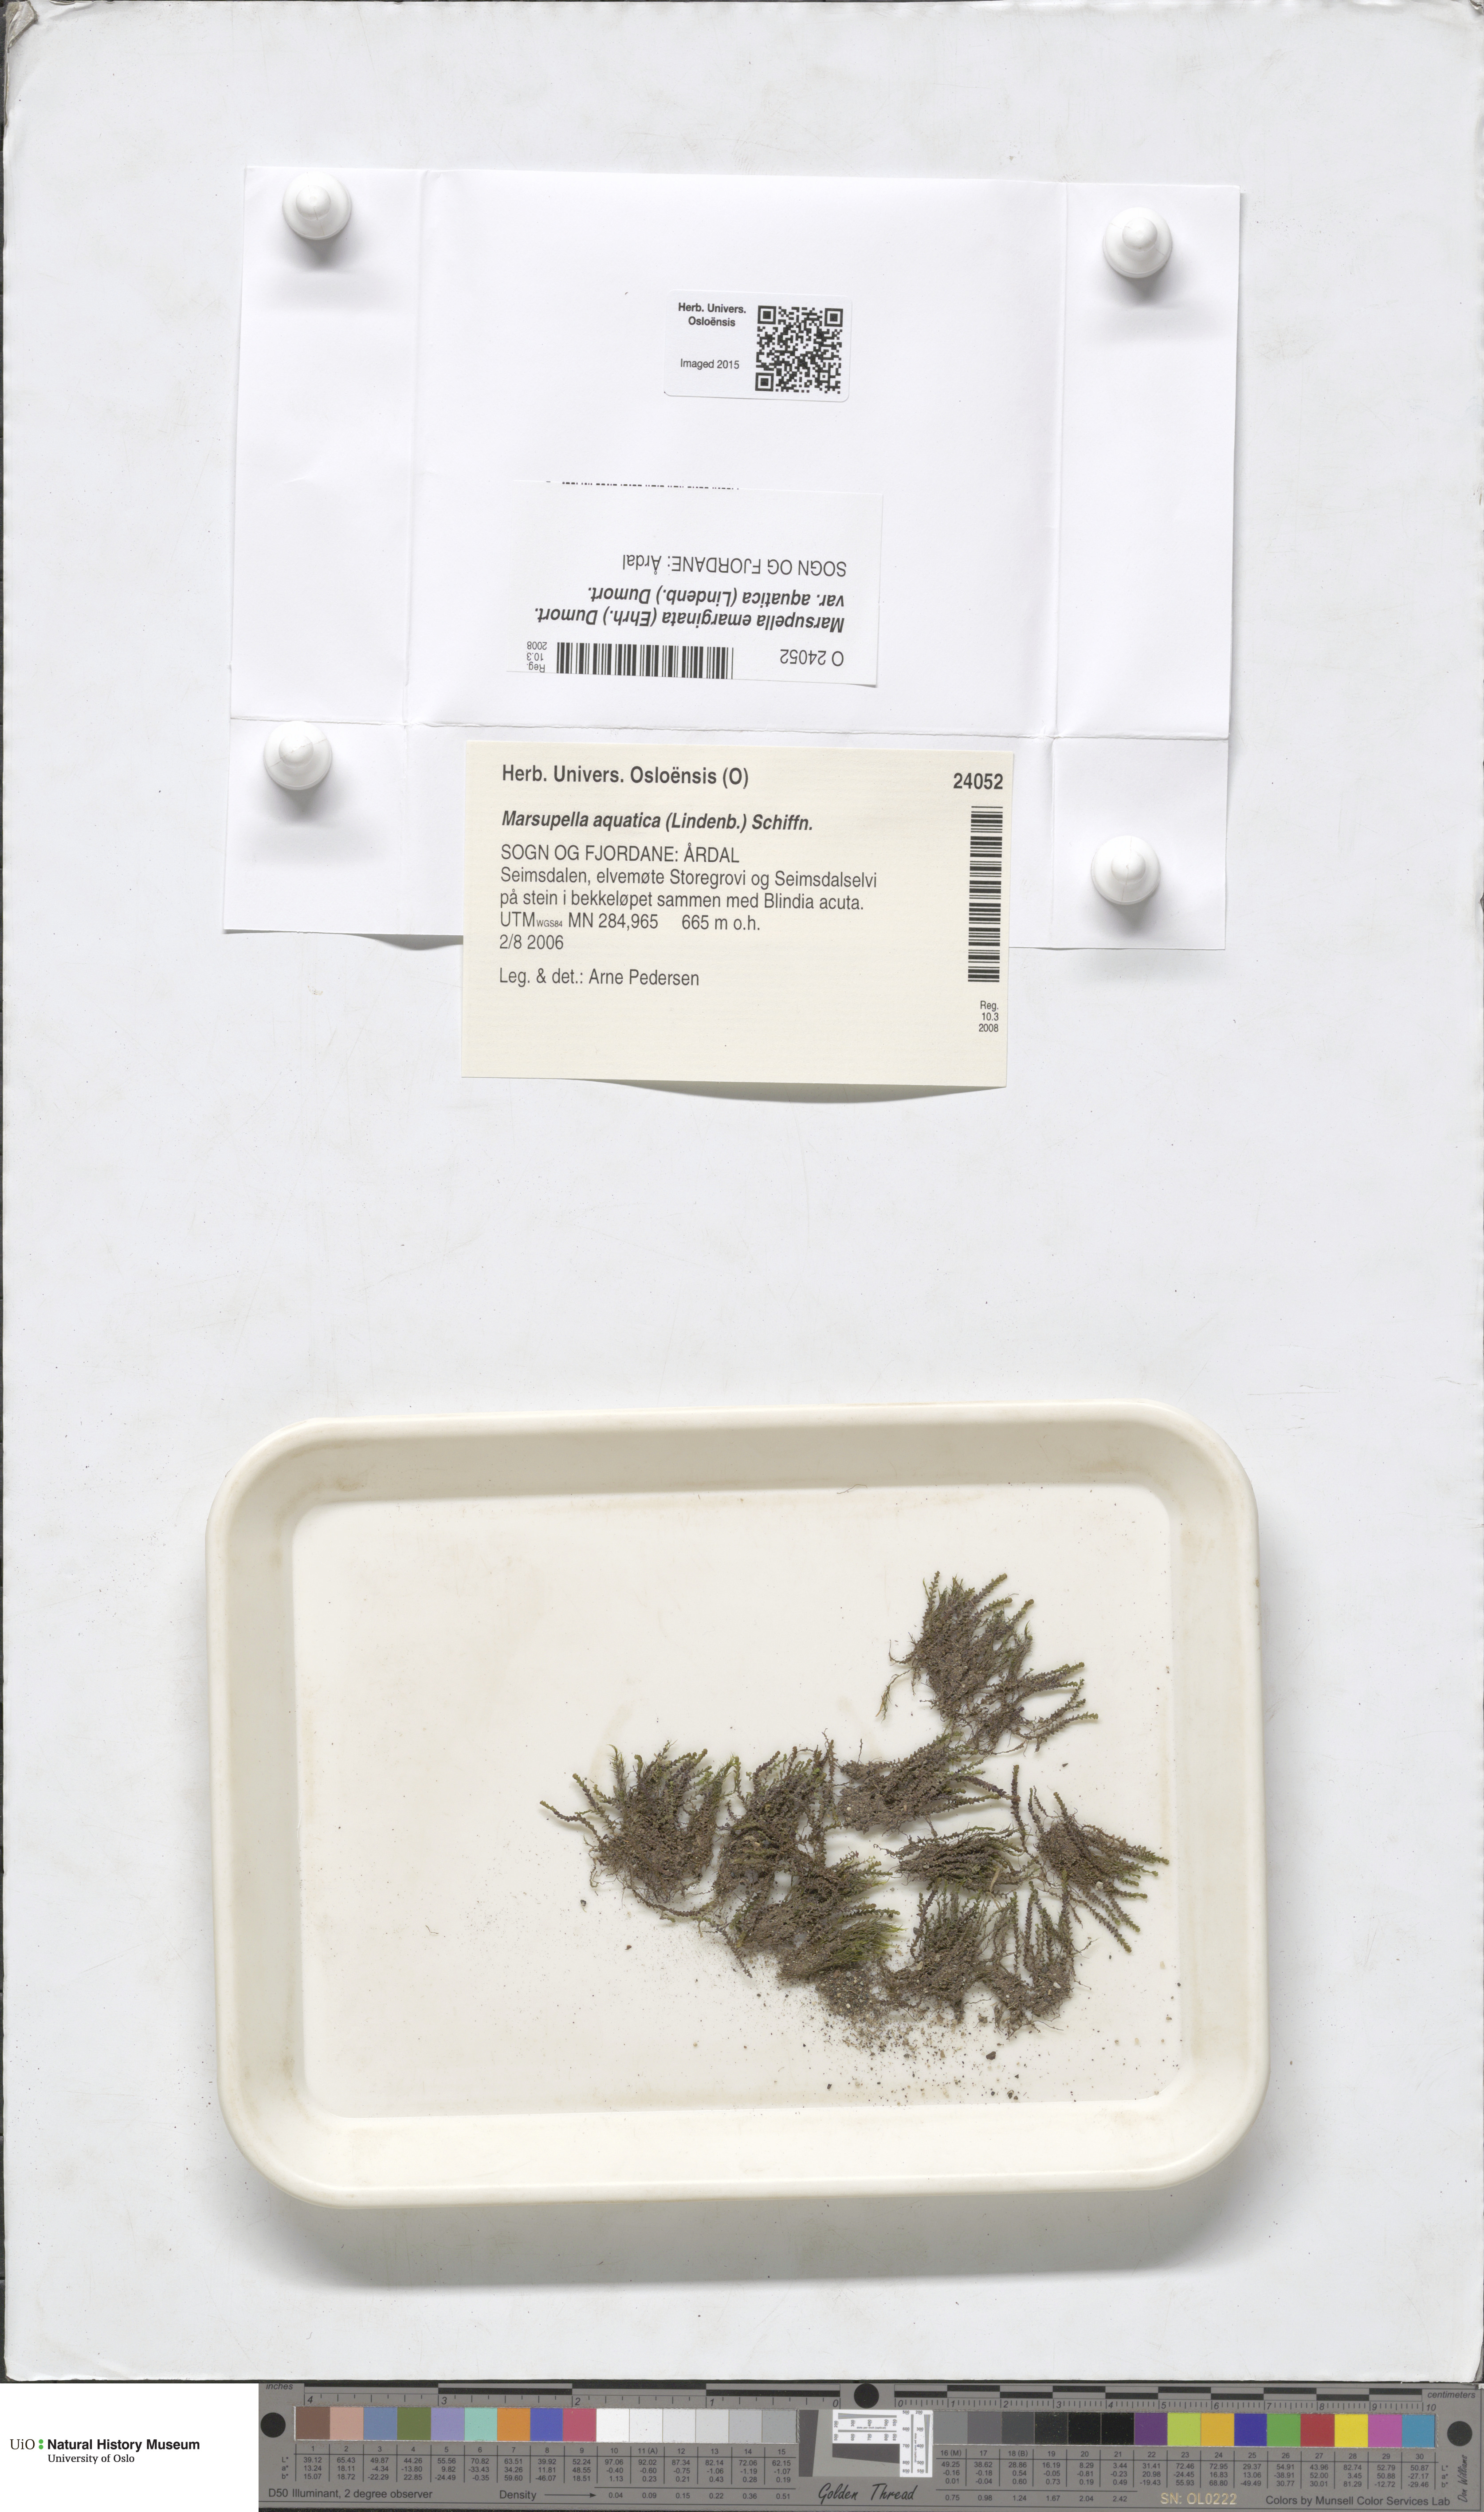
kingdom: Plantae
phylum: Marchantiophyta
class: Jungermanniopsida
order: Jungermanniales
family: Gymnomitriaceae
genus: Marsupella
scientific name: Marsupella aquatica
